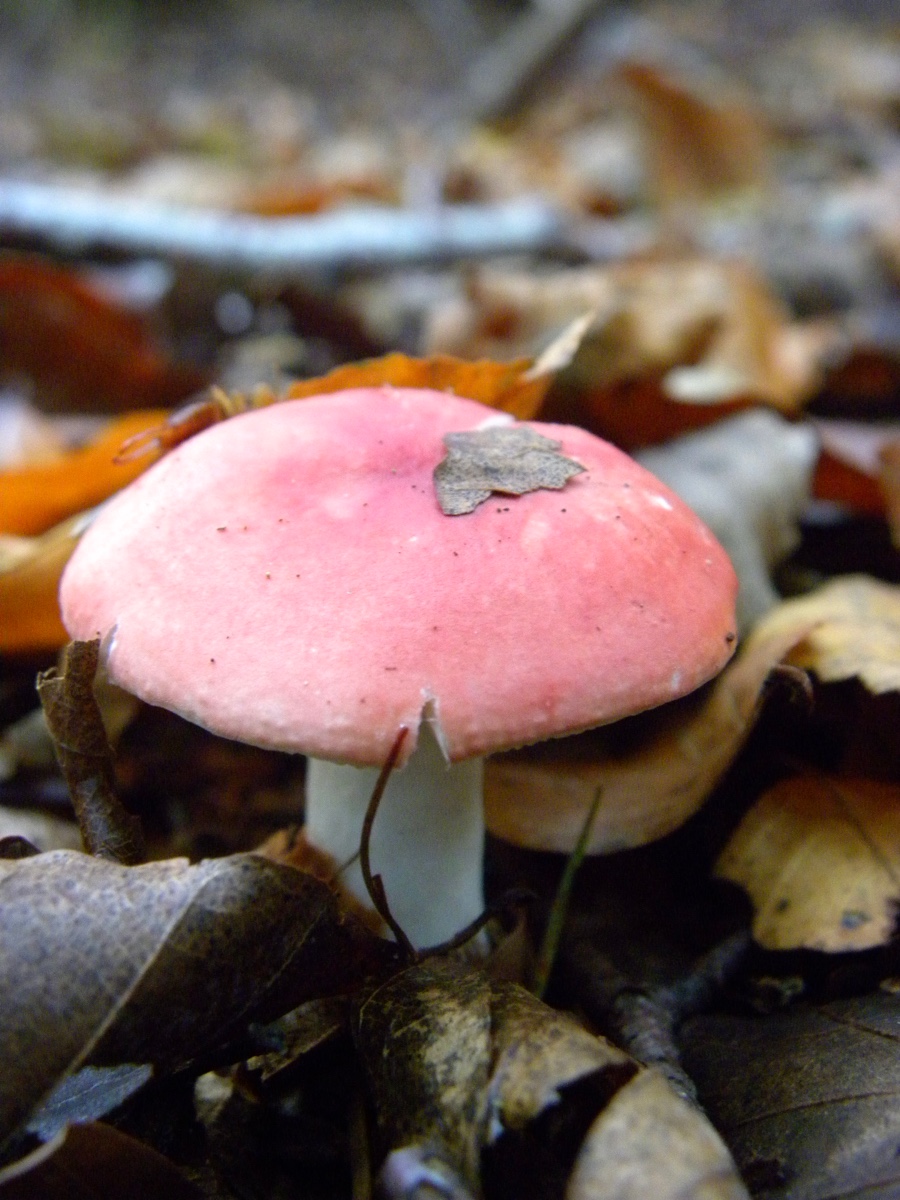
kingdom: Fungi
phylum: Basidiomycota
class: Agaricomycetes
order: Russulales
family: Russulaceae
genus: Russula
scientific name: Russula
